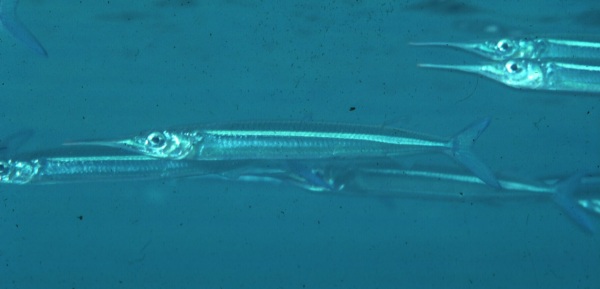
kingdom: Animalia
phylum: Chordata
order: Beloniformes
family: Hemiramphidae
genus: Hyporhamphus
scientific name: Hyporhamphus dussumieri
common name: Dussumier's halfbeak
